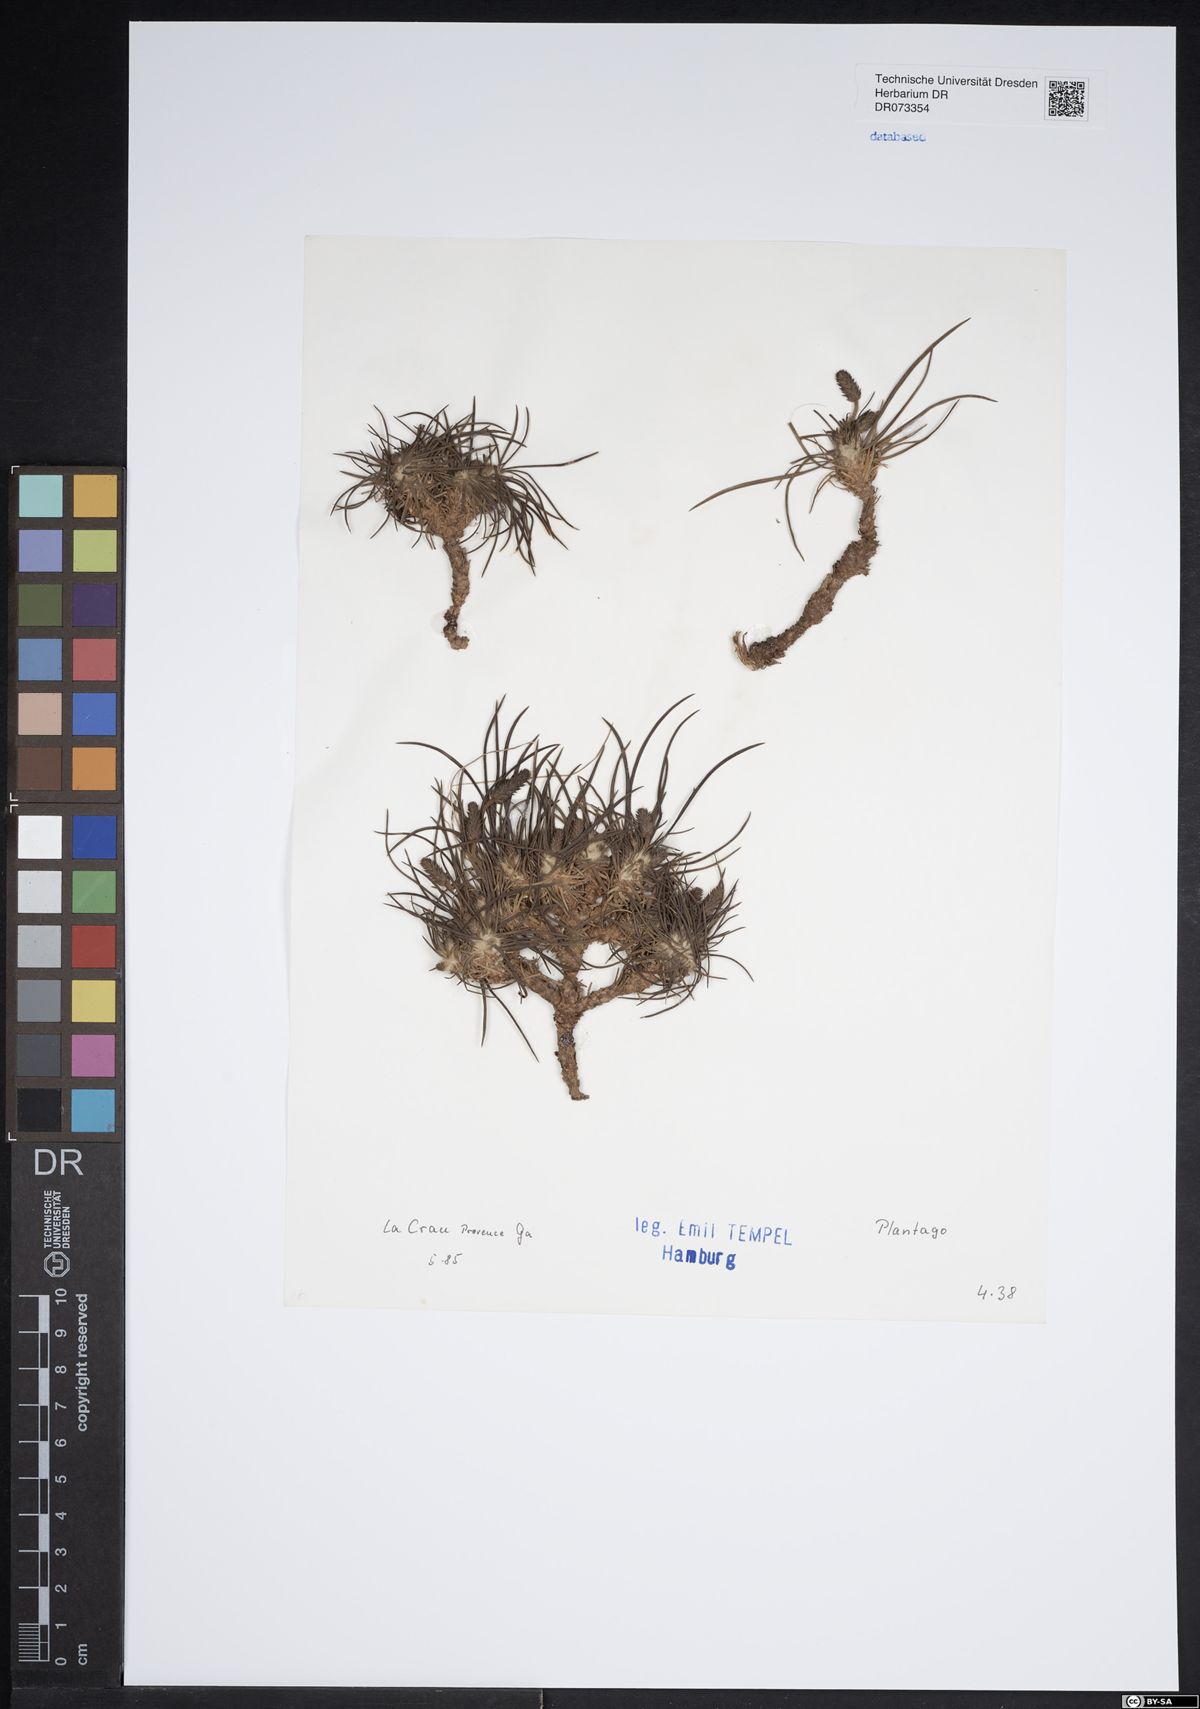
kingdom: Plantae
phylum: Tracheophyta
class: Magnoliopsida
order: Lamiales
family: Plantaginaceae
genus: Plantago
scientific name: Plantago
